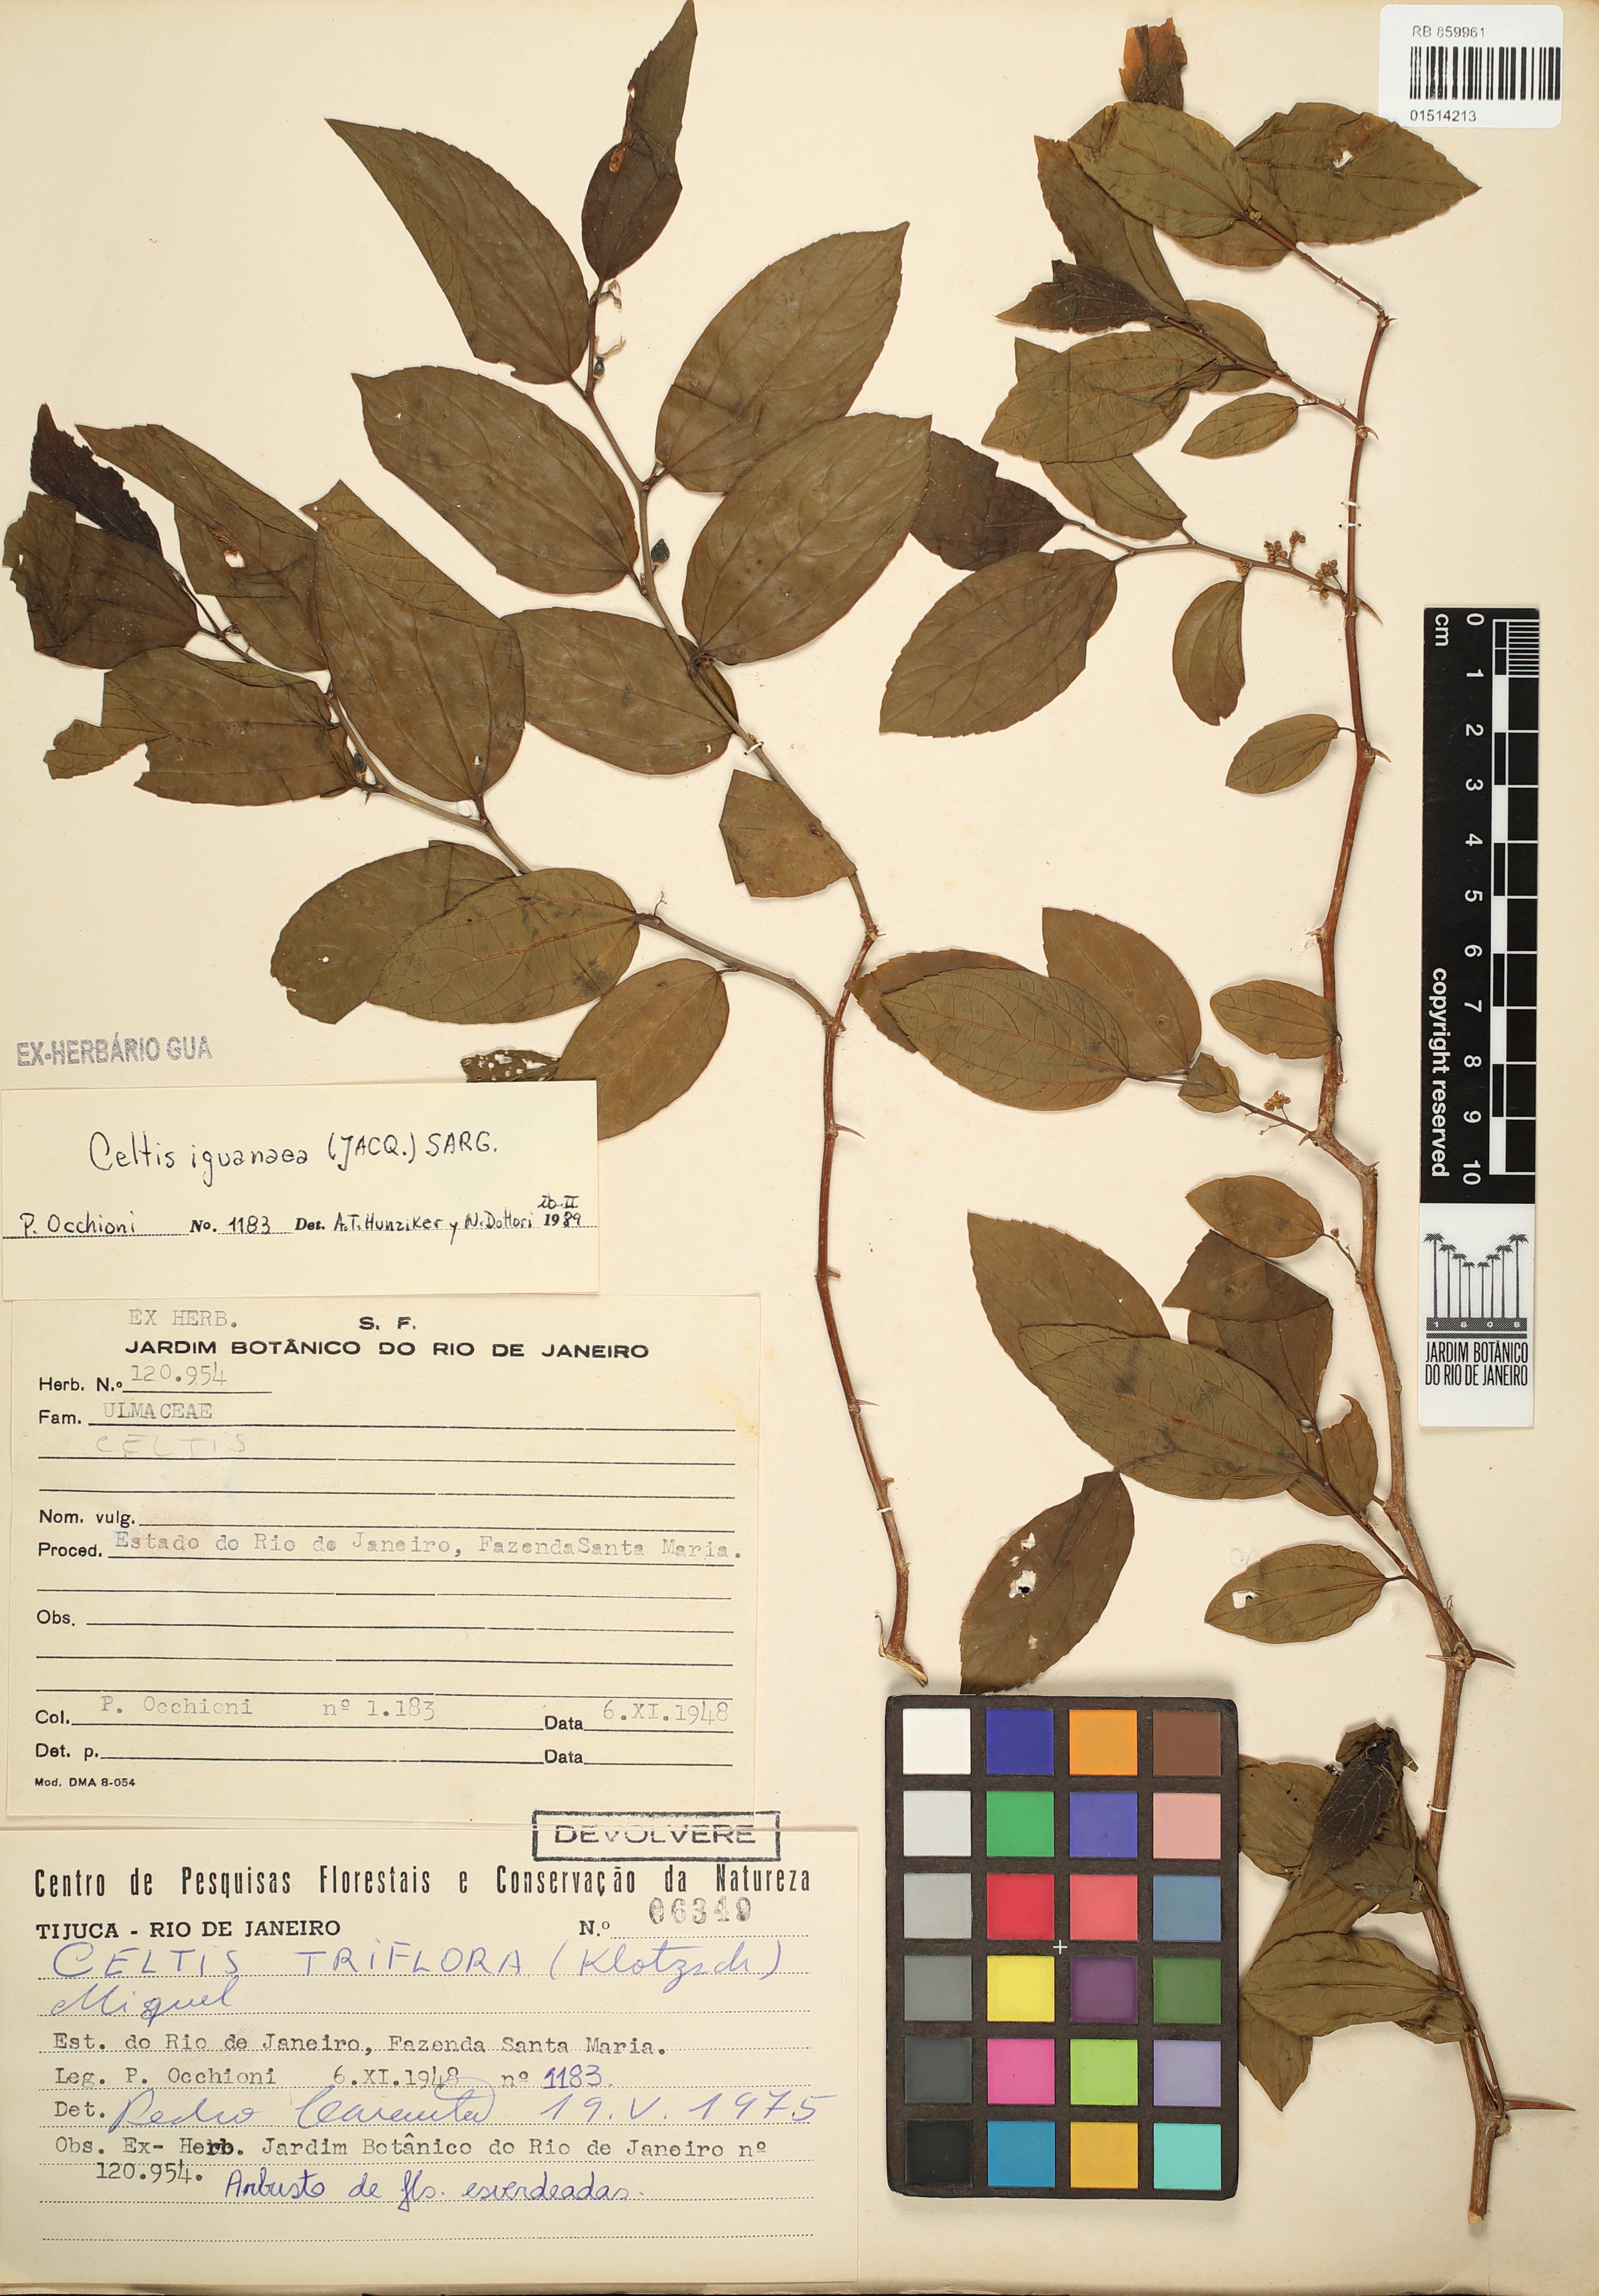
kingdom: Plantae
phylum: Tracheophyta
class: Magnoliopsida
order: Rosales
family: Cannabaceae
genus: Celtis
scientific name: Celtis iguanaea
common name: Iguana hackberry
